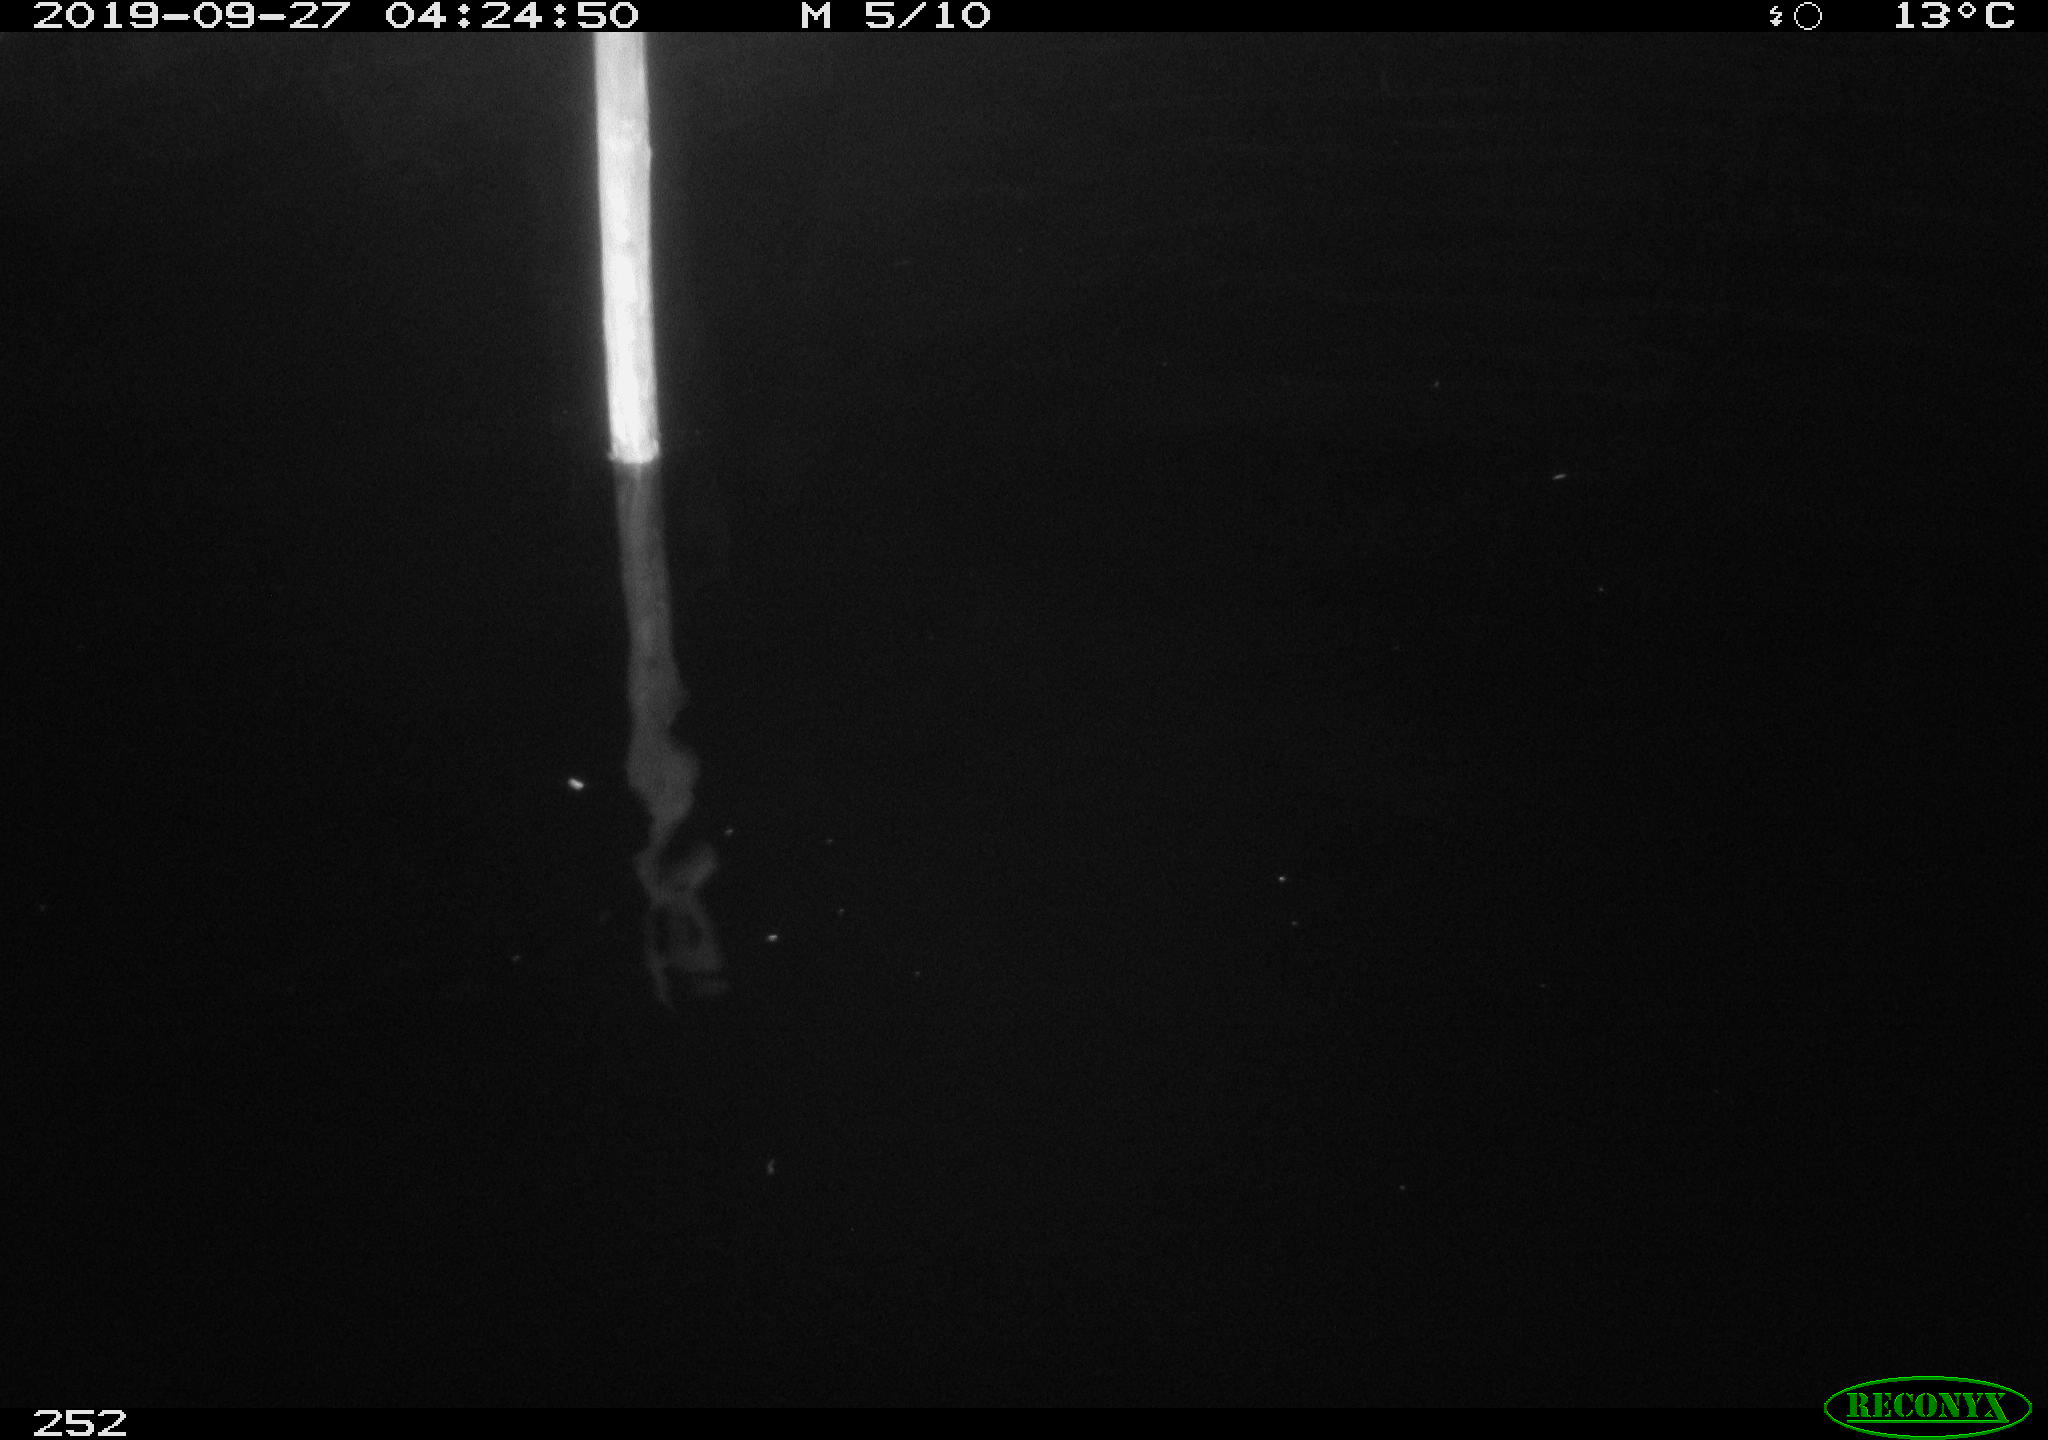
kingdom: Animalia
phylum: Chordata
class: Aves
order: Anseriformes
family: Anatidae
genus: Anas
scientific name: Anas platyrhynchos
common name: Mallard
